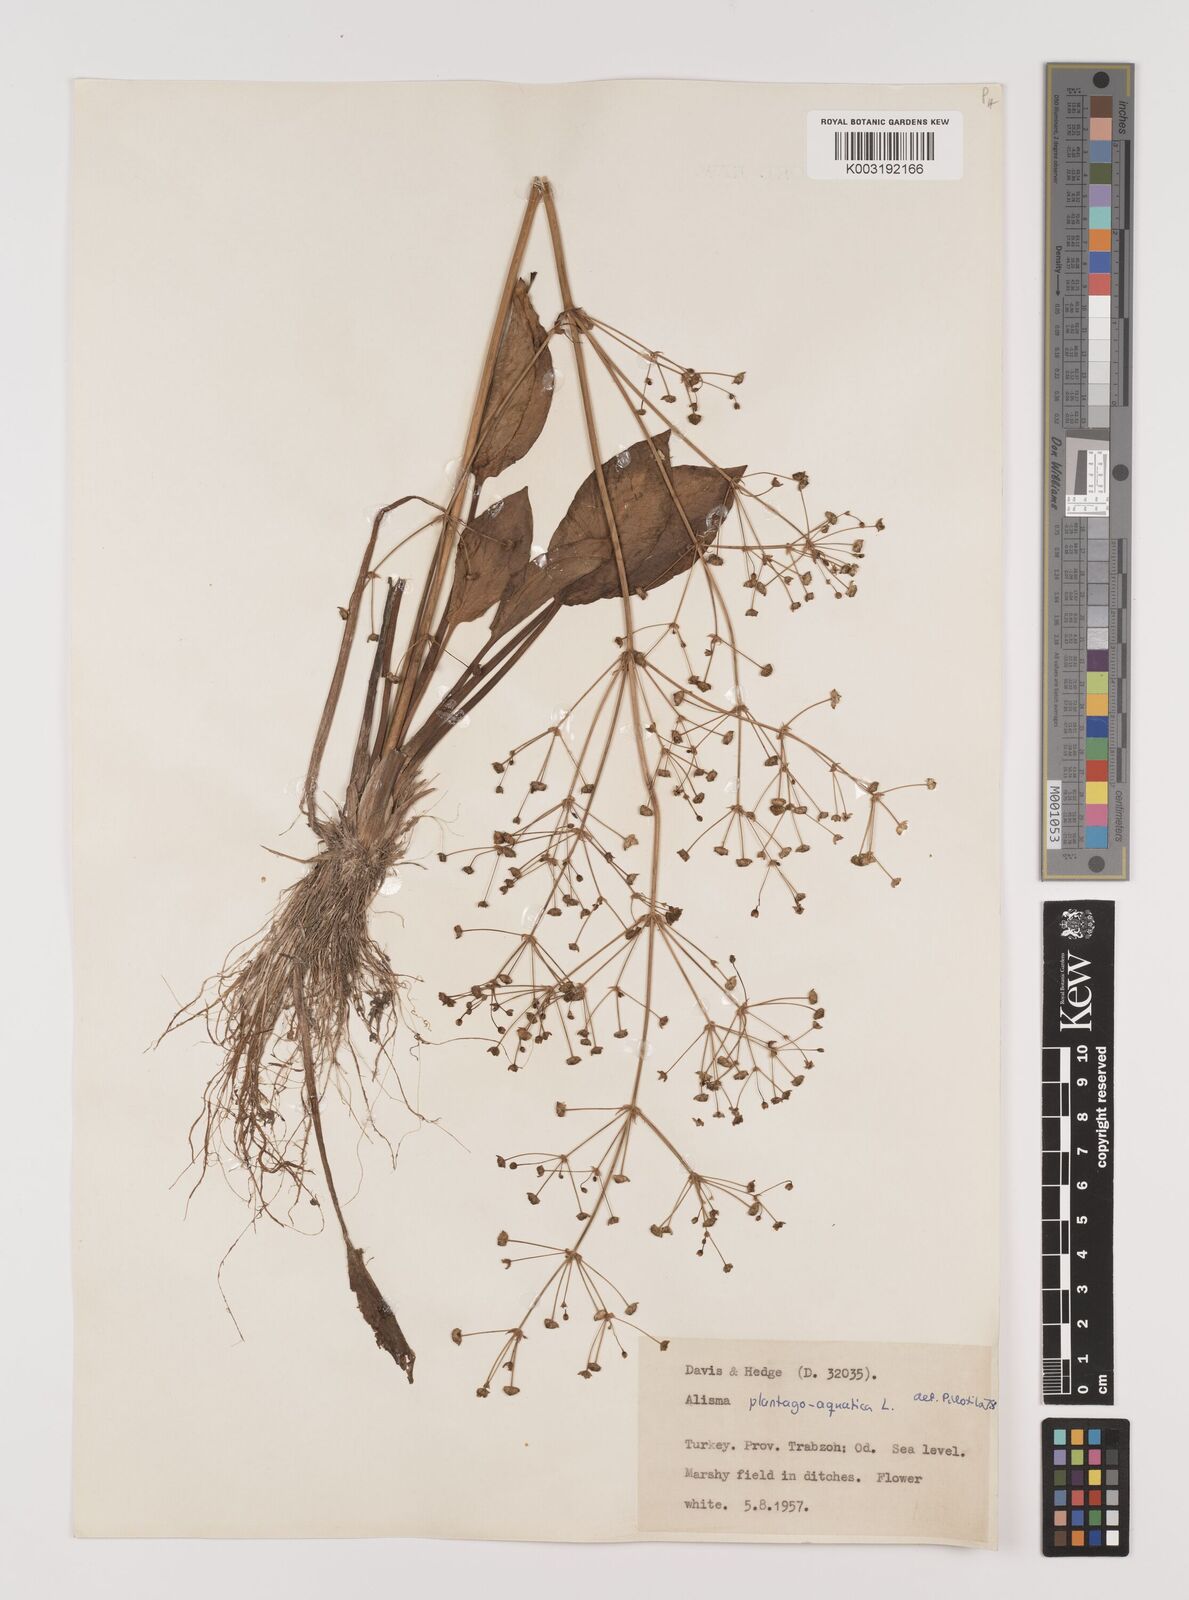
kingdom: Plantae
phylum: Tracheophyta
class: Liliopsida
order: Alismatales
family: Alismataceae
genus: Alisma
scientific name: Alisma plantago-aquatica
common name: Water-plantain
